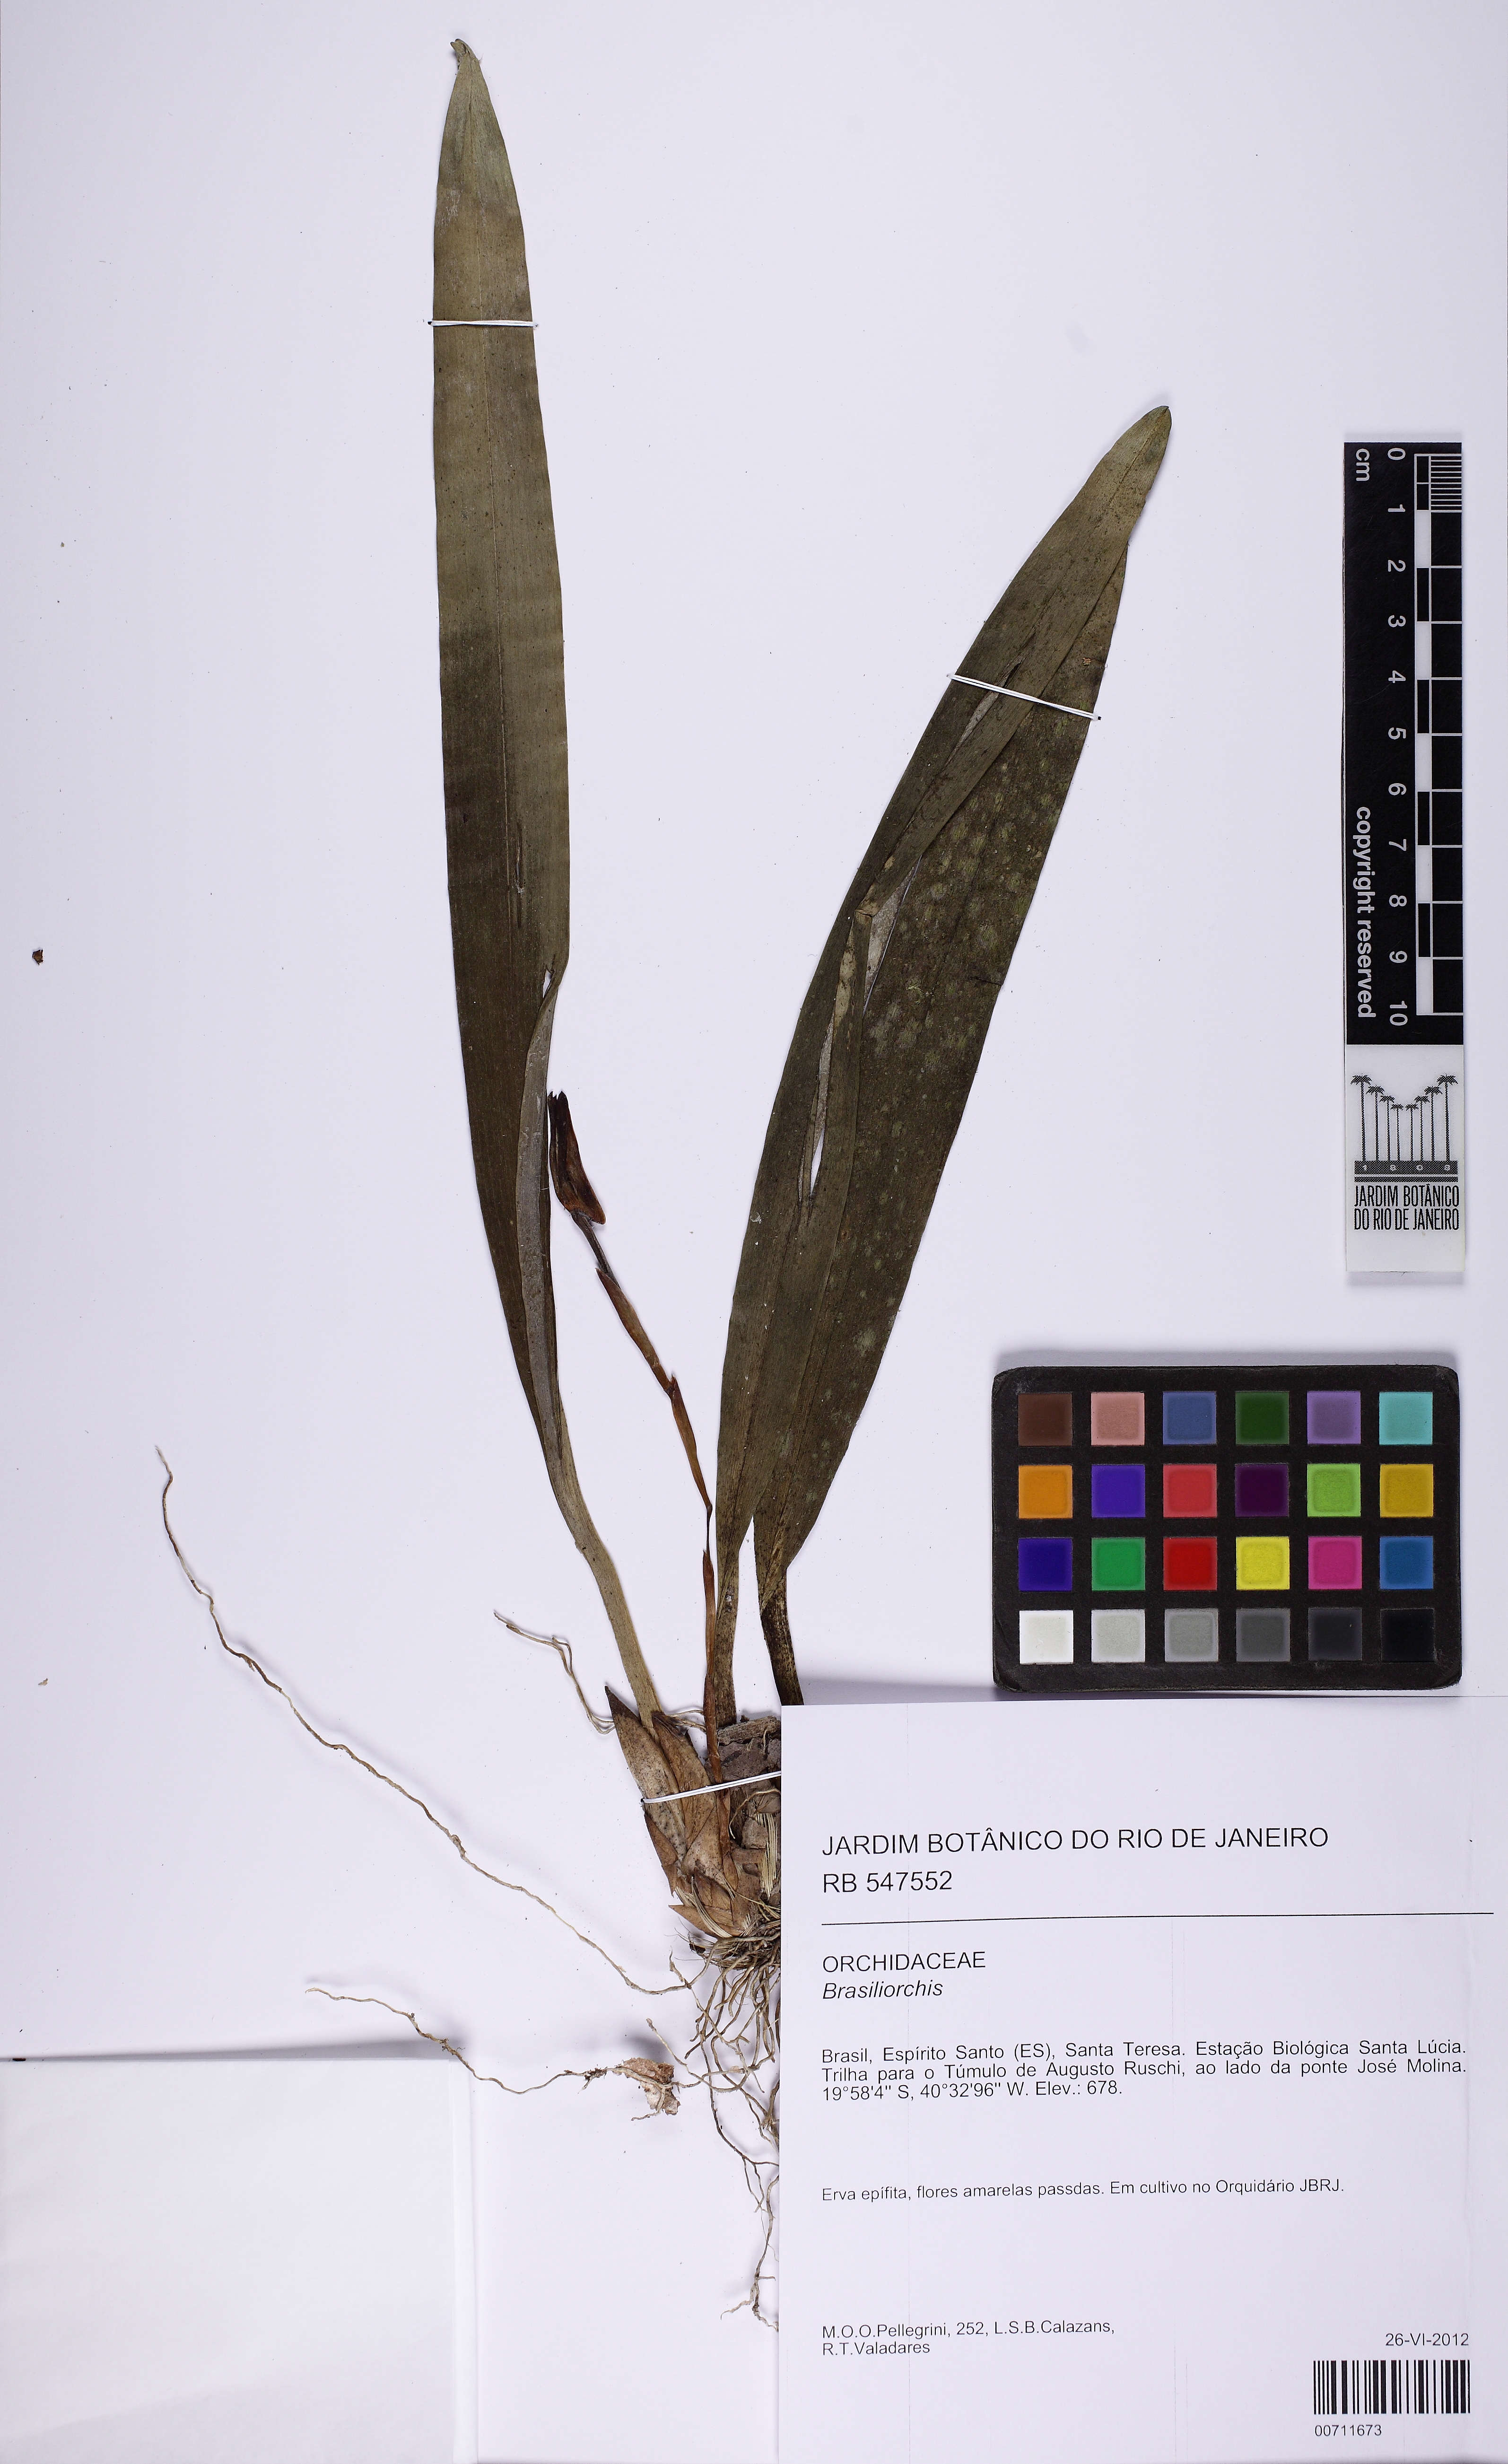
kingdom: Plantae
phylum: Tracheophyta
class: Liliopsida
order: Asparagales
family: Orchidaceae
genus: Maxillaria
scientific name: Maxillaria
